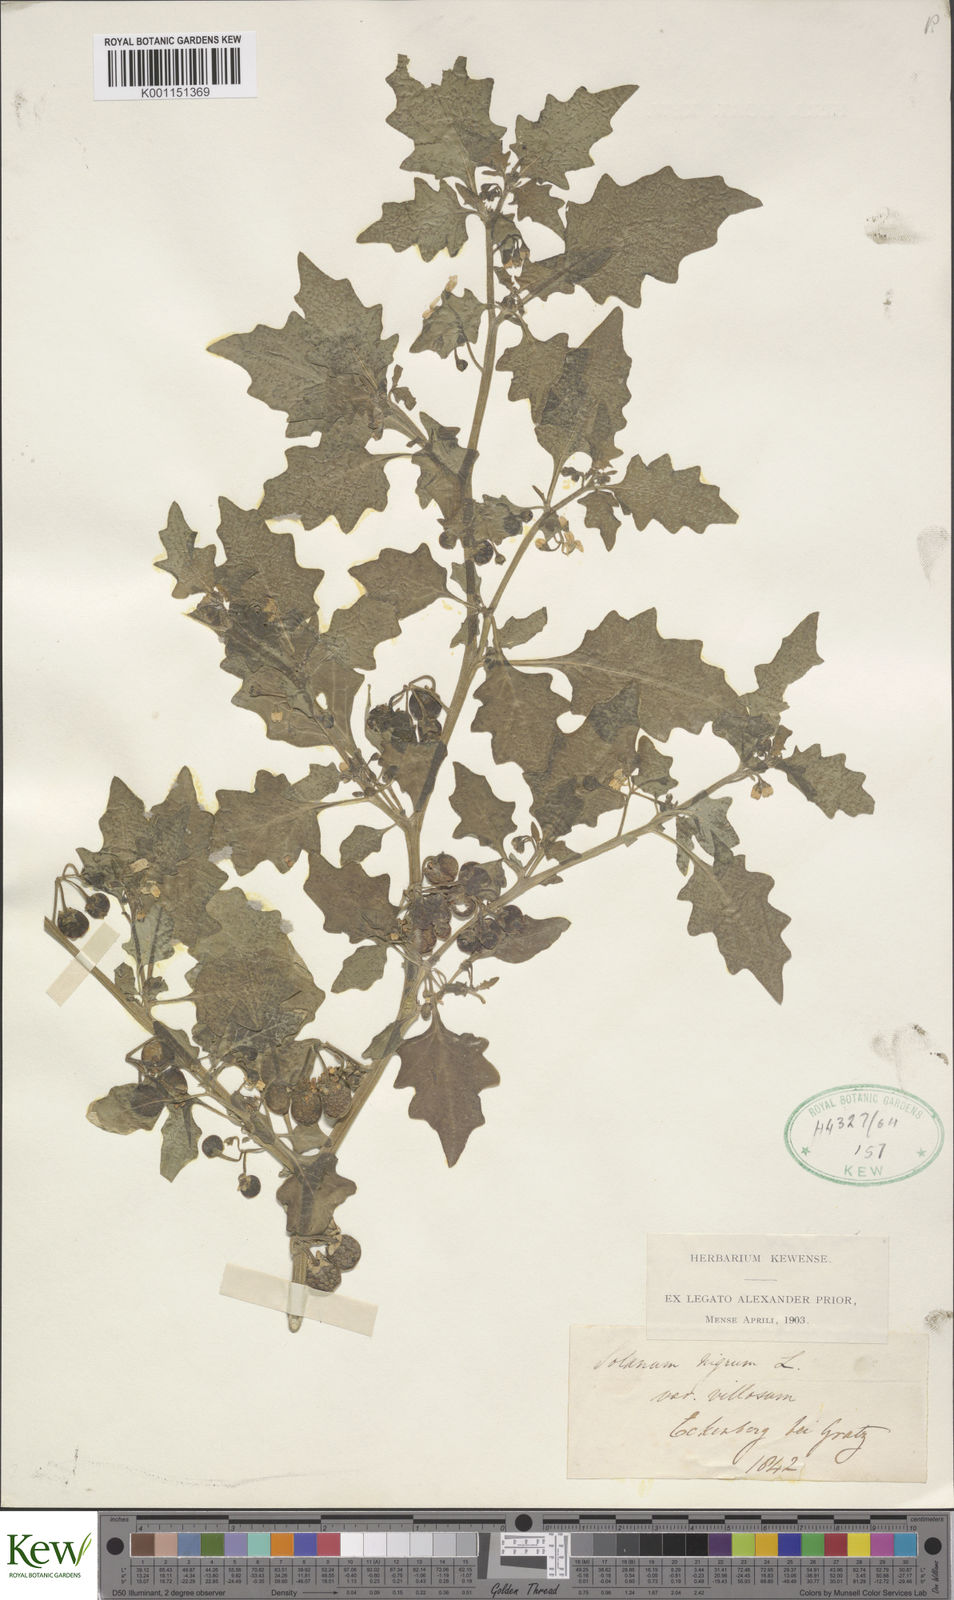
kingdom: Plantae
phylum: Tracheophyta
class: Magnoliopsida
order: Solanales
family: Solanaceae
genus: Solanum
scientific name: Solanum nigrum
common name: Black nightshade
